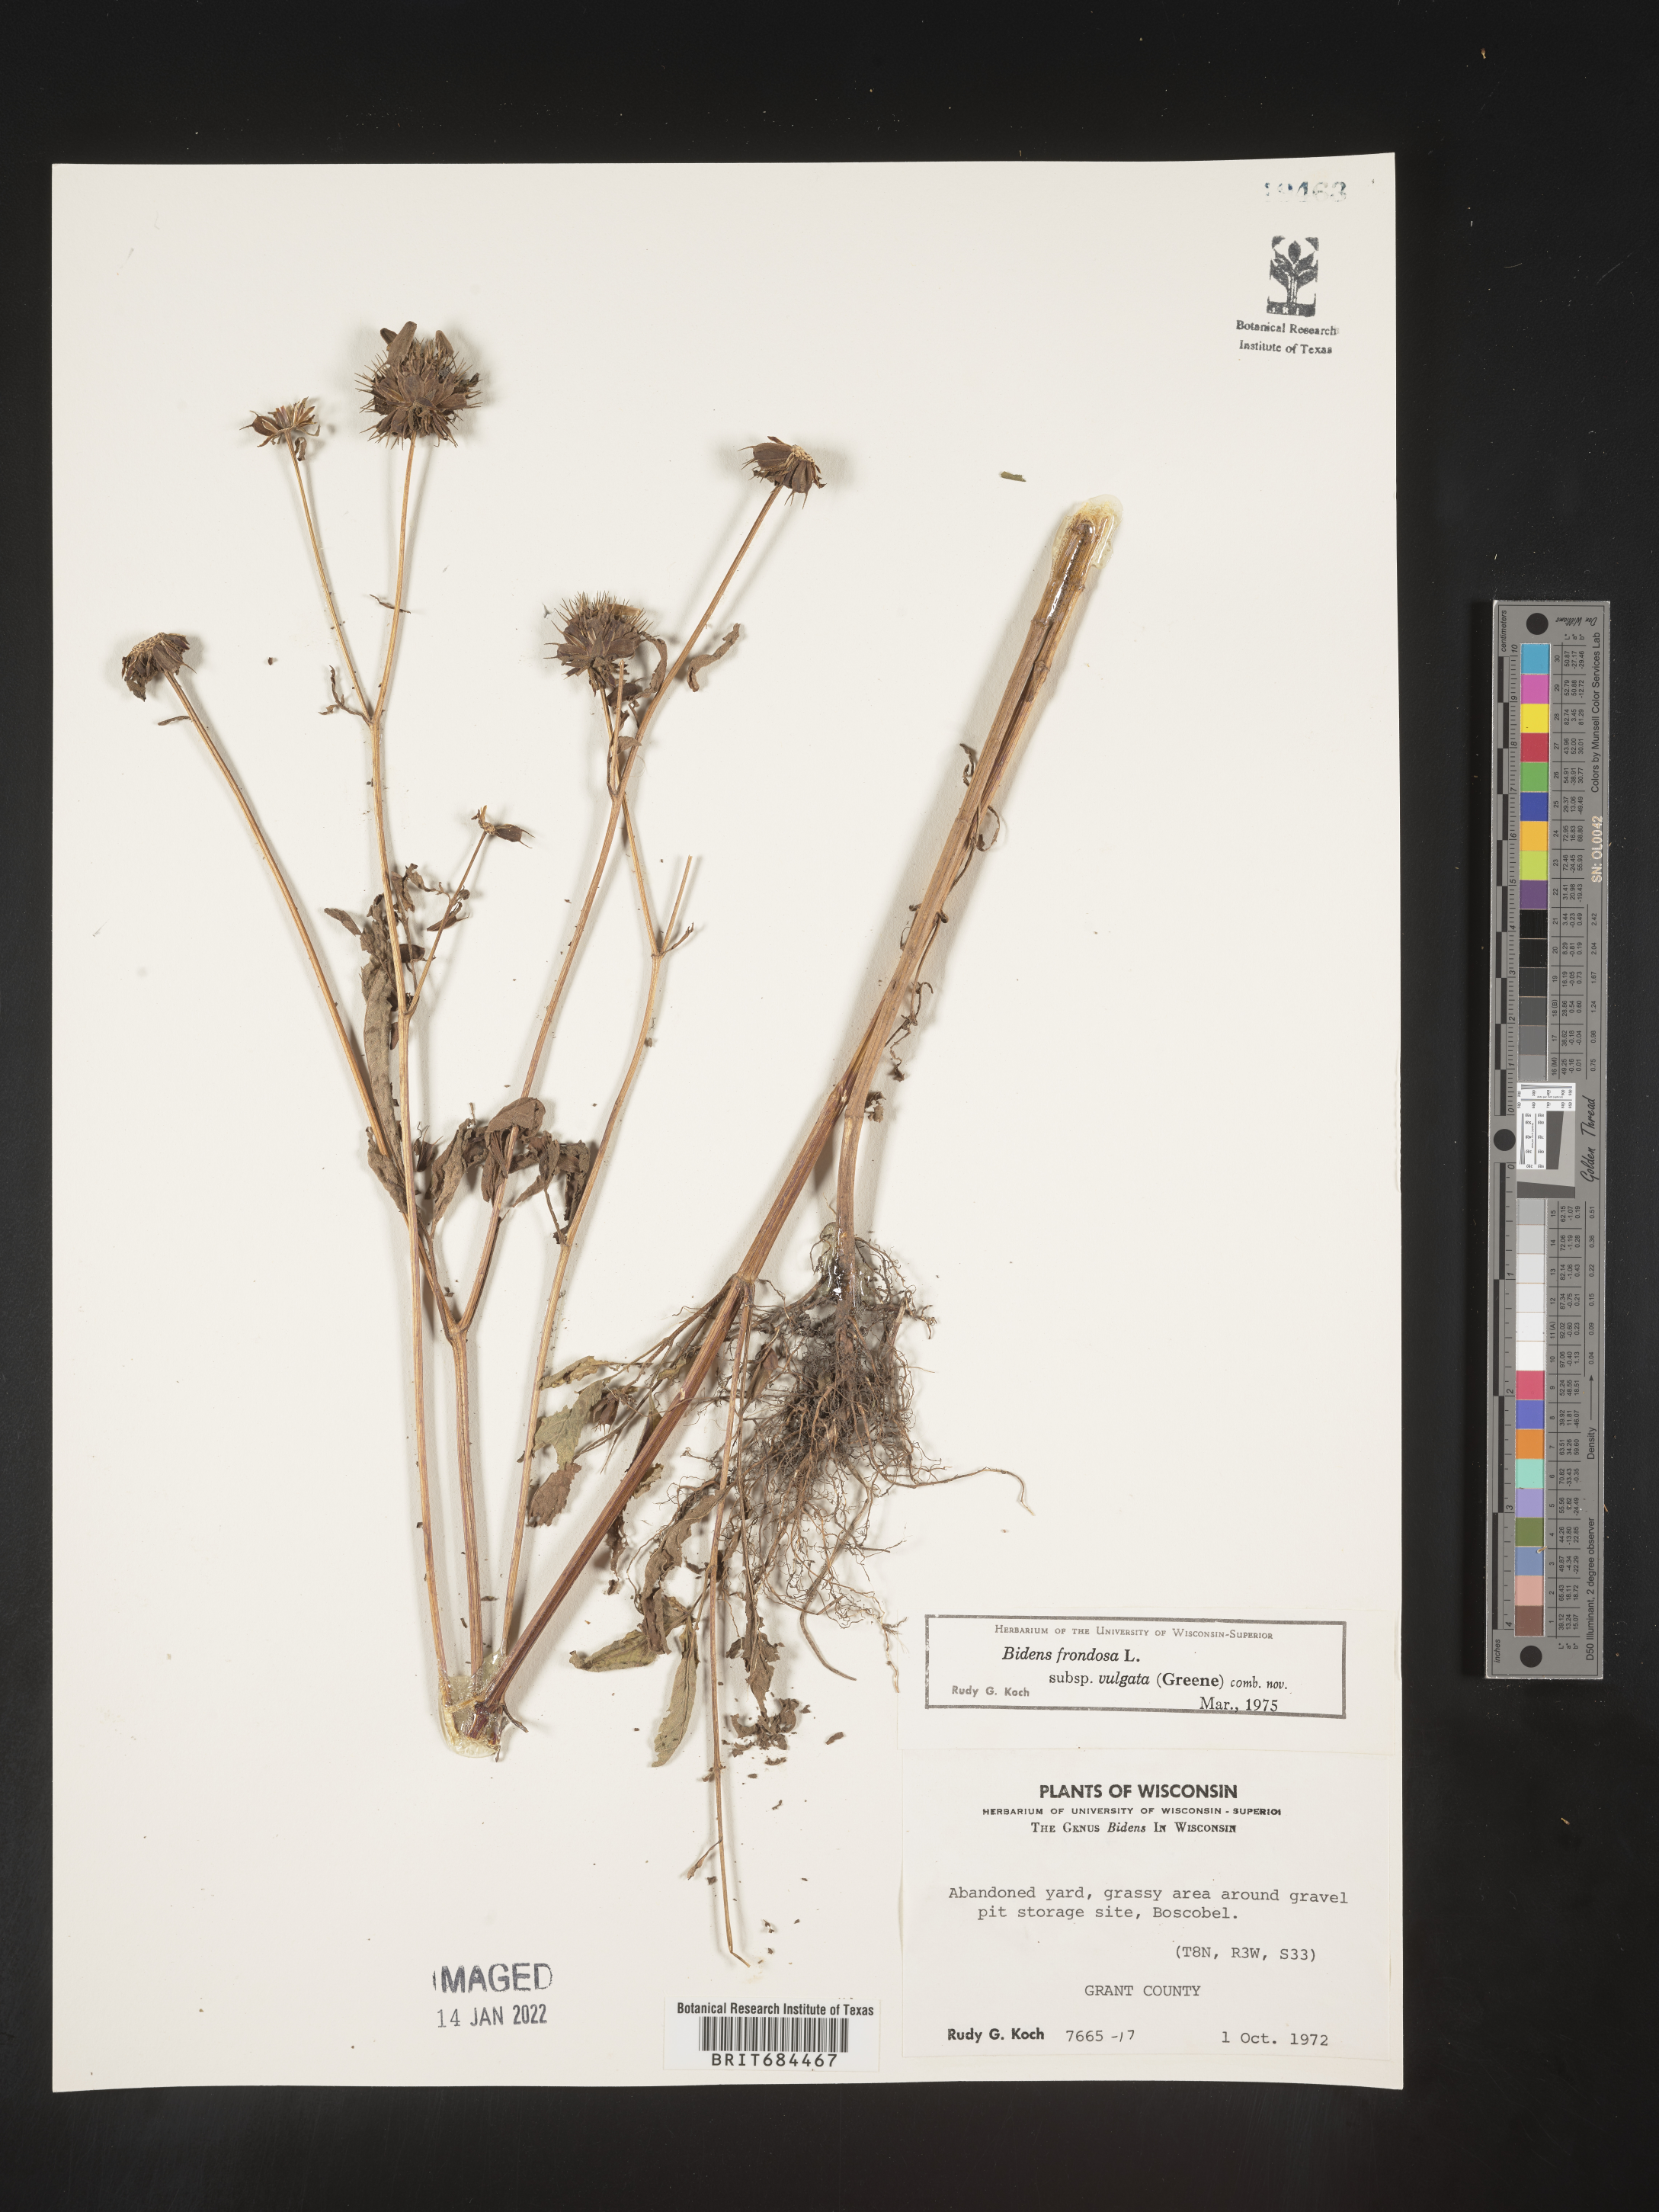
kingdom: Plantae
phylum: Tracheophyta
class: Magnoliopsida
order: Asterales
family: Asteraceae
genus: Bidens
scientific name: Bidens frondosa
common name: Beggarticks
